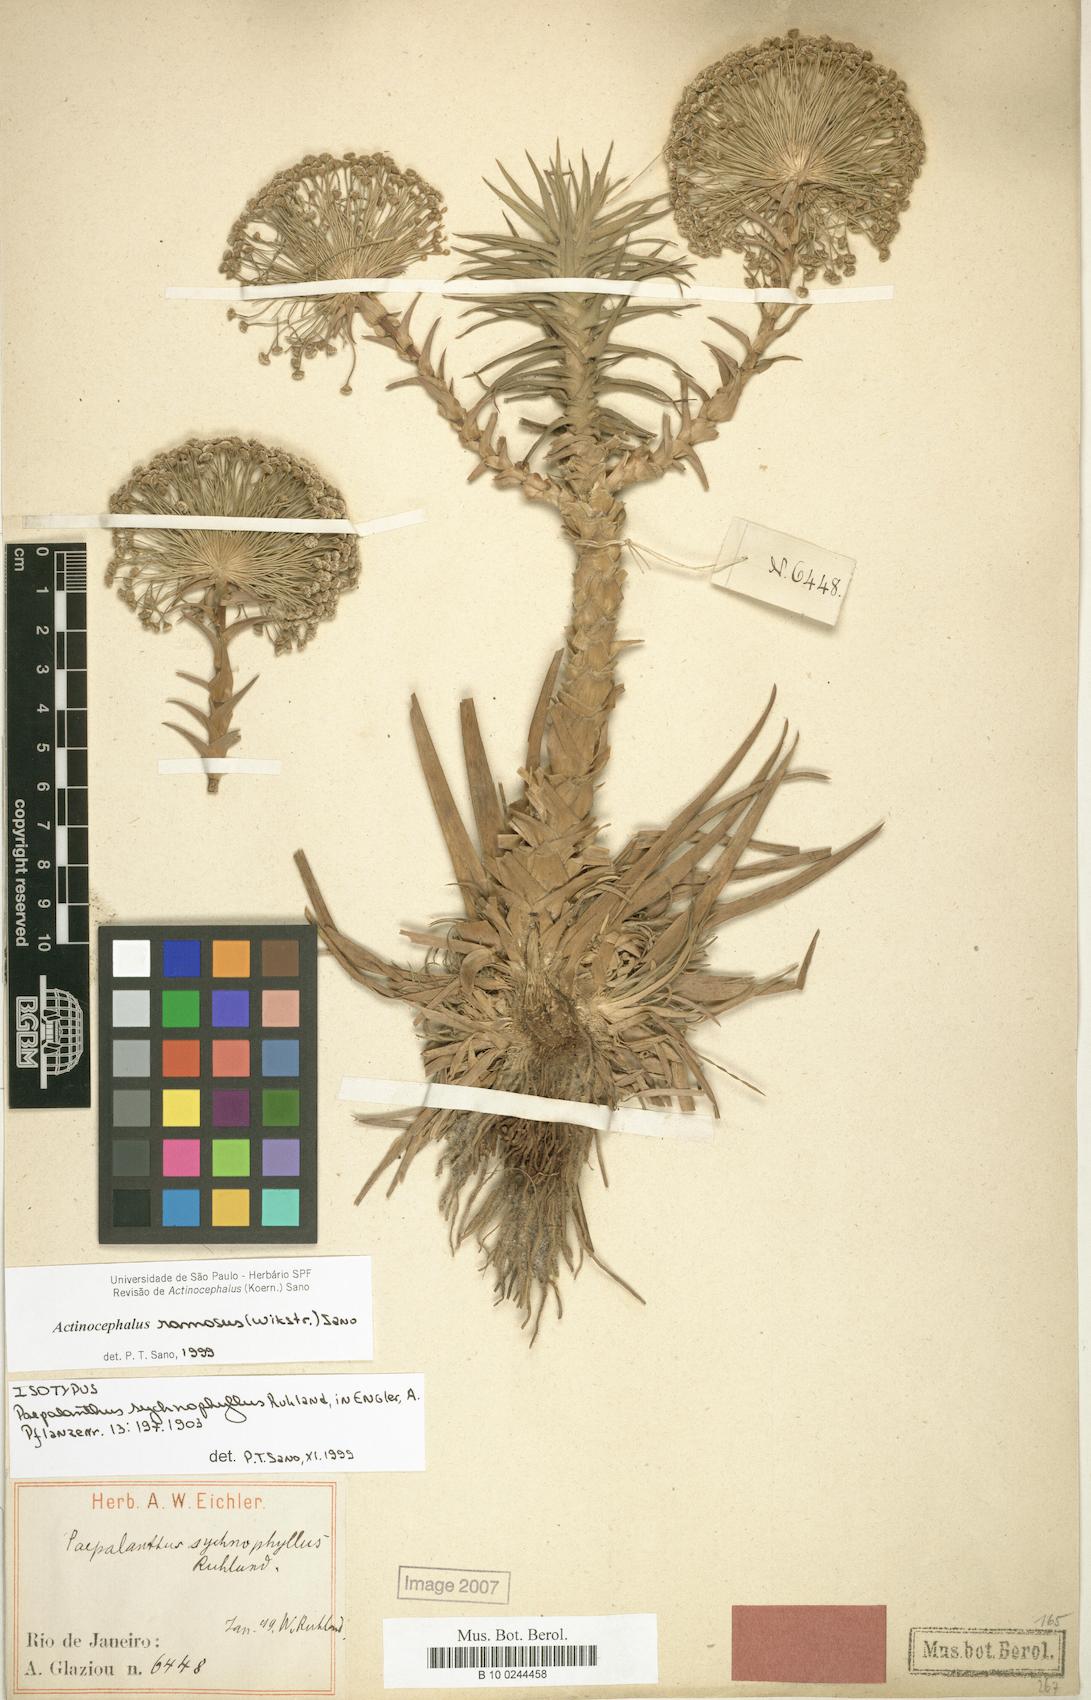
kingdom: Plantae
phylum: Tracheophyta
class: Liliopsida
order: Poales
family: Eriocaulaceae
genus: Paepalanthus
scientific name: Paepalanthus ramosus
